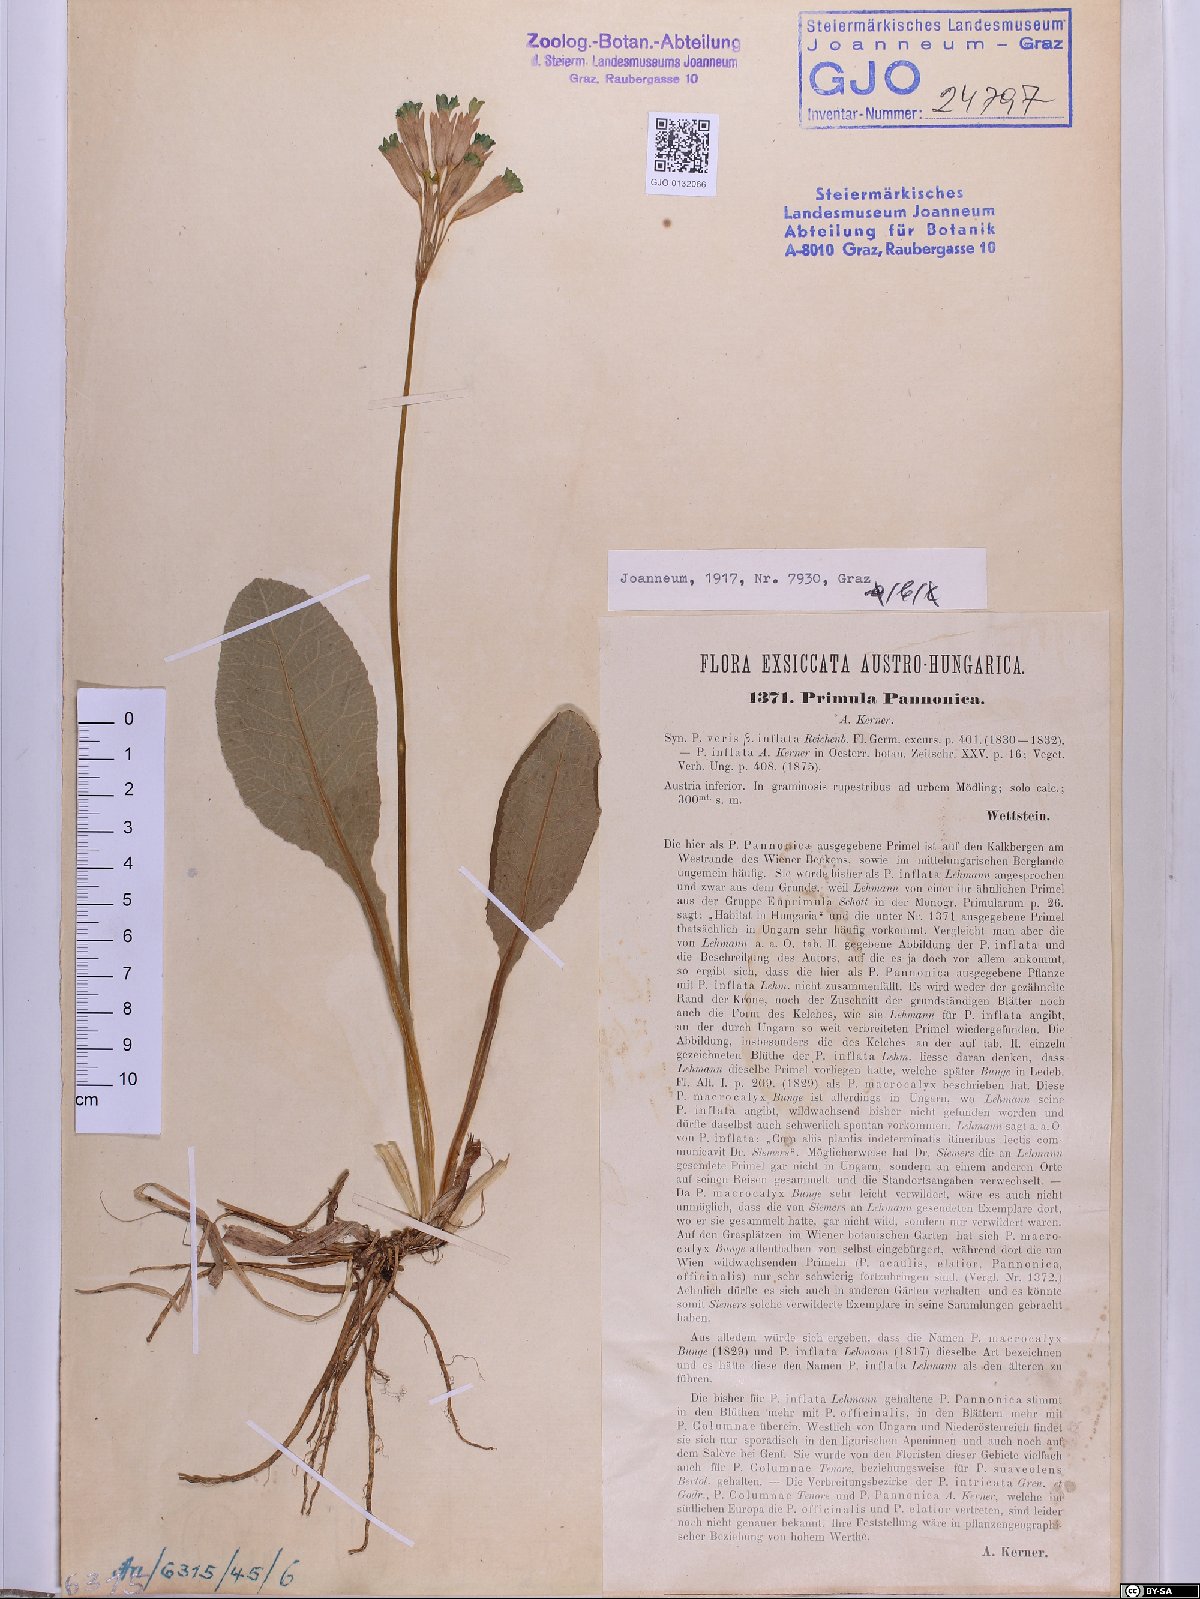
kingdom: Plantae
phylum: Tracheophyta
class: Magnoliopsida
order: Ericales
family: Primulaceae
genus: Primula
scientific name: Primula veris
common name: Cowslip
